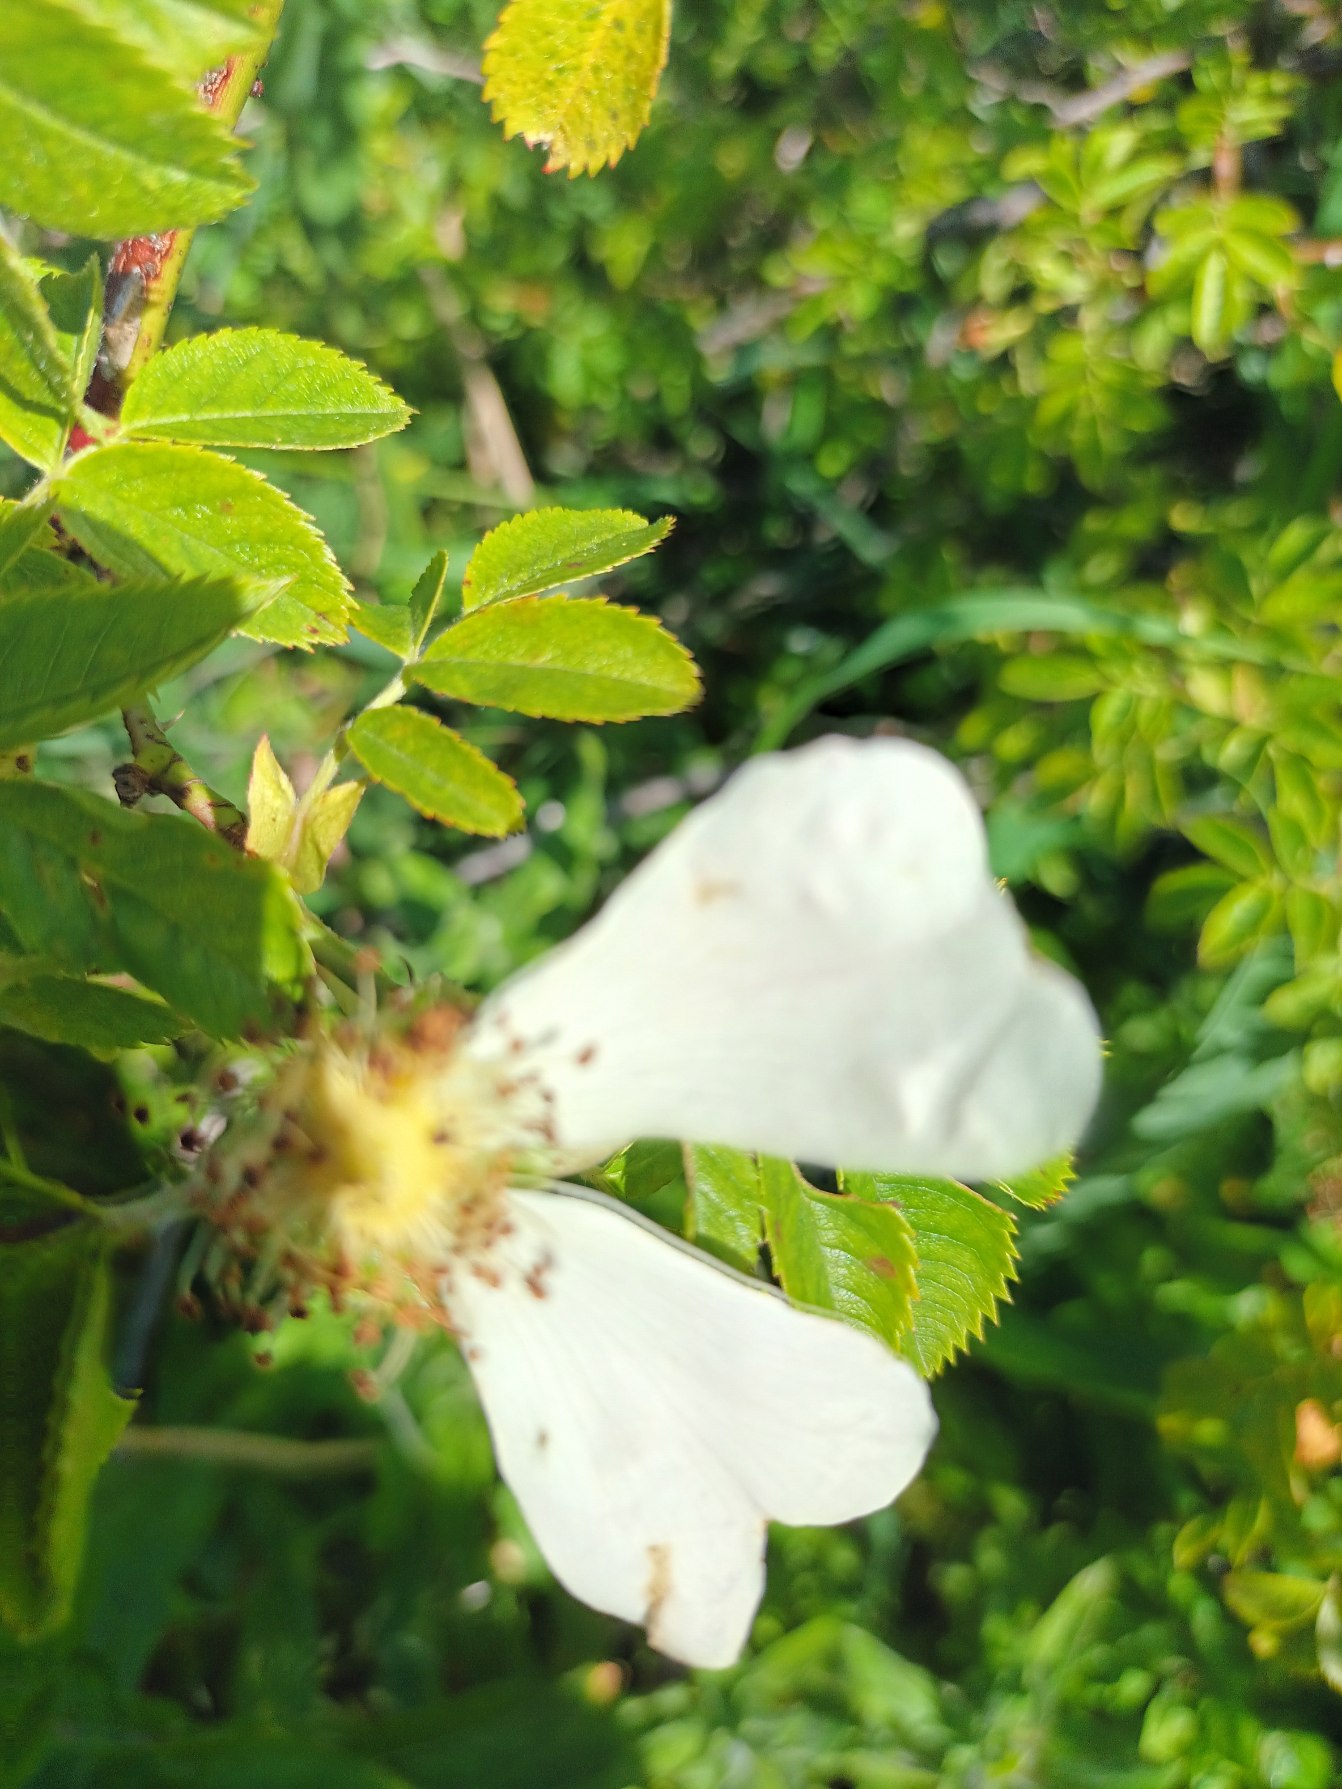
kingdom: Plantae
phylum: Tracheophyta
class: Magnoliopsida
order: Rosales
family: Rosaceae
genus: Rosa
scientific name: Rosa dumalis
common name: Blågrøn rose (underart)
